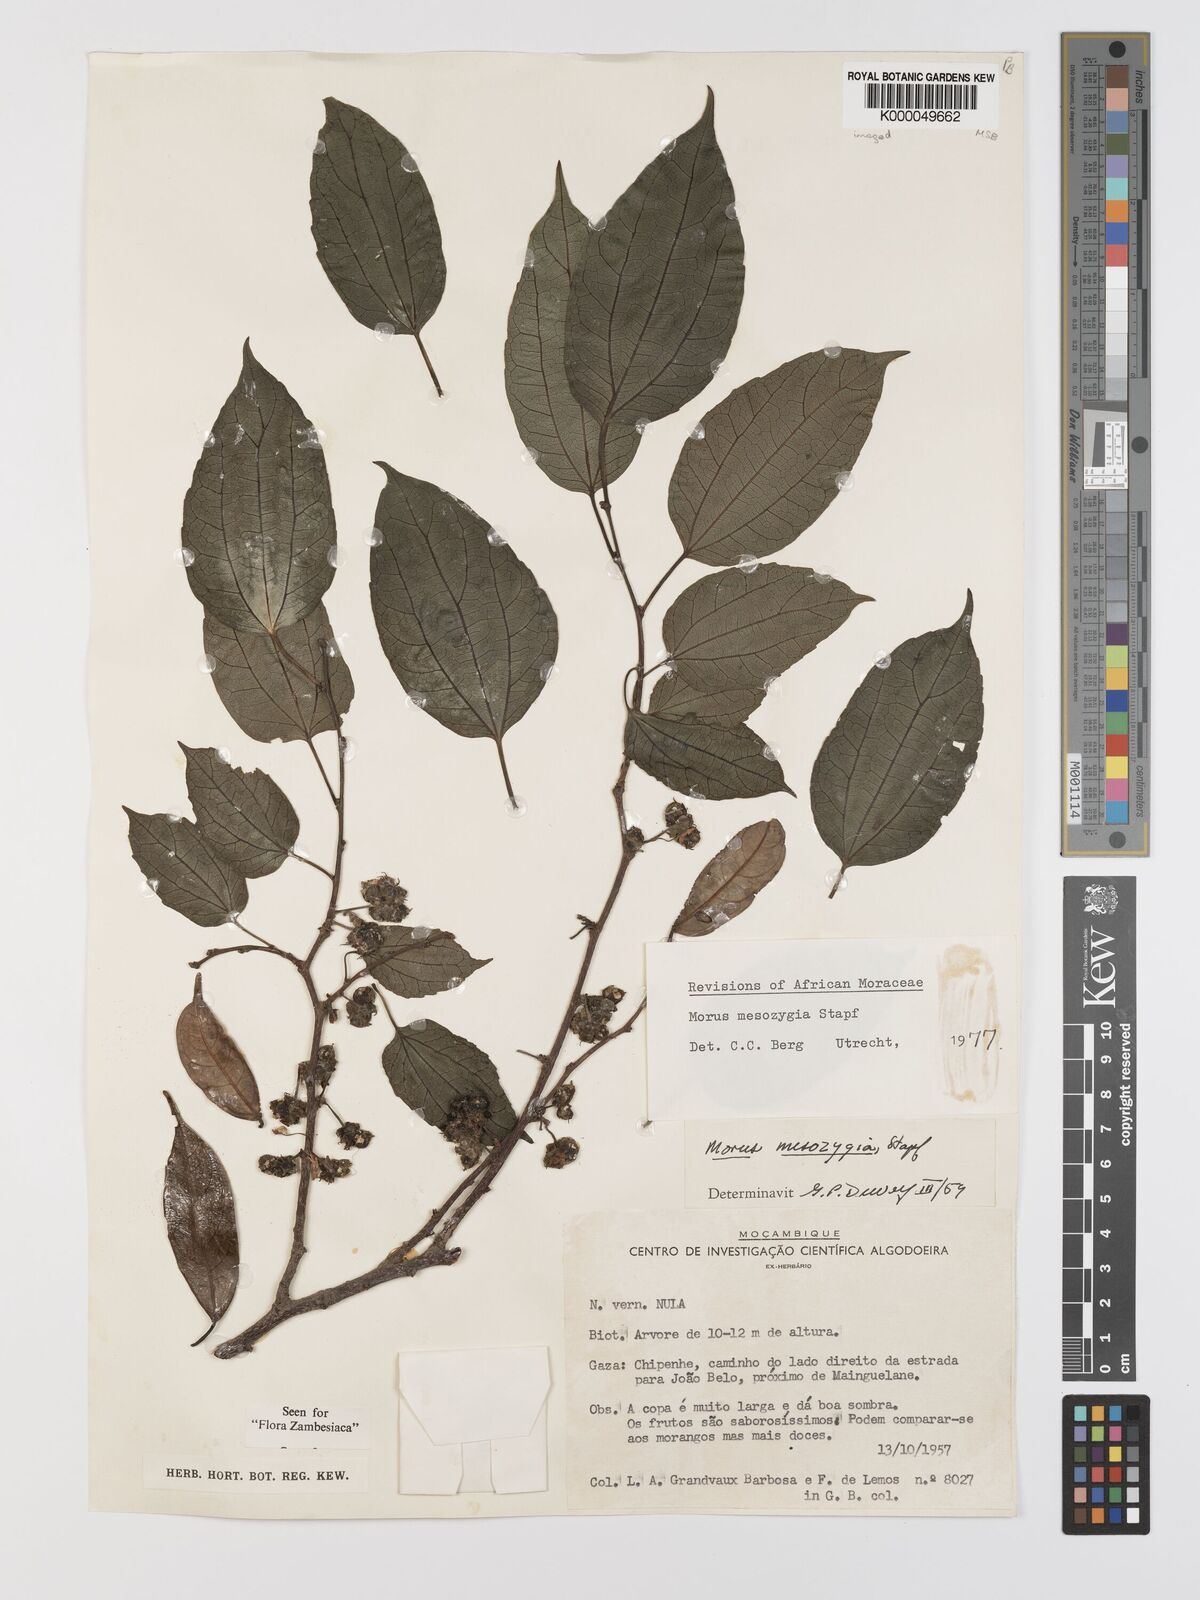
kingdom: Plantae
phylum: Tracheophyta
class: Magnoliopsida
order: Rosales
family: Moraceae
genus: Afromorus
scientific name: Afromorus mesozygia
